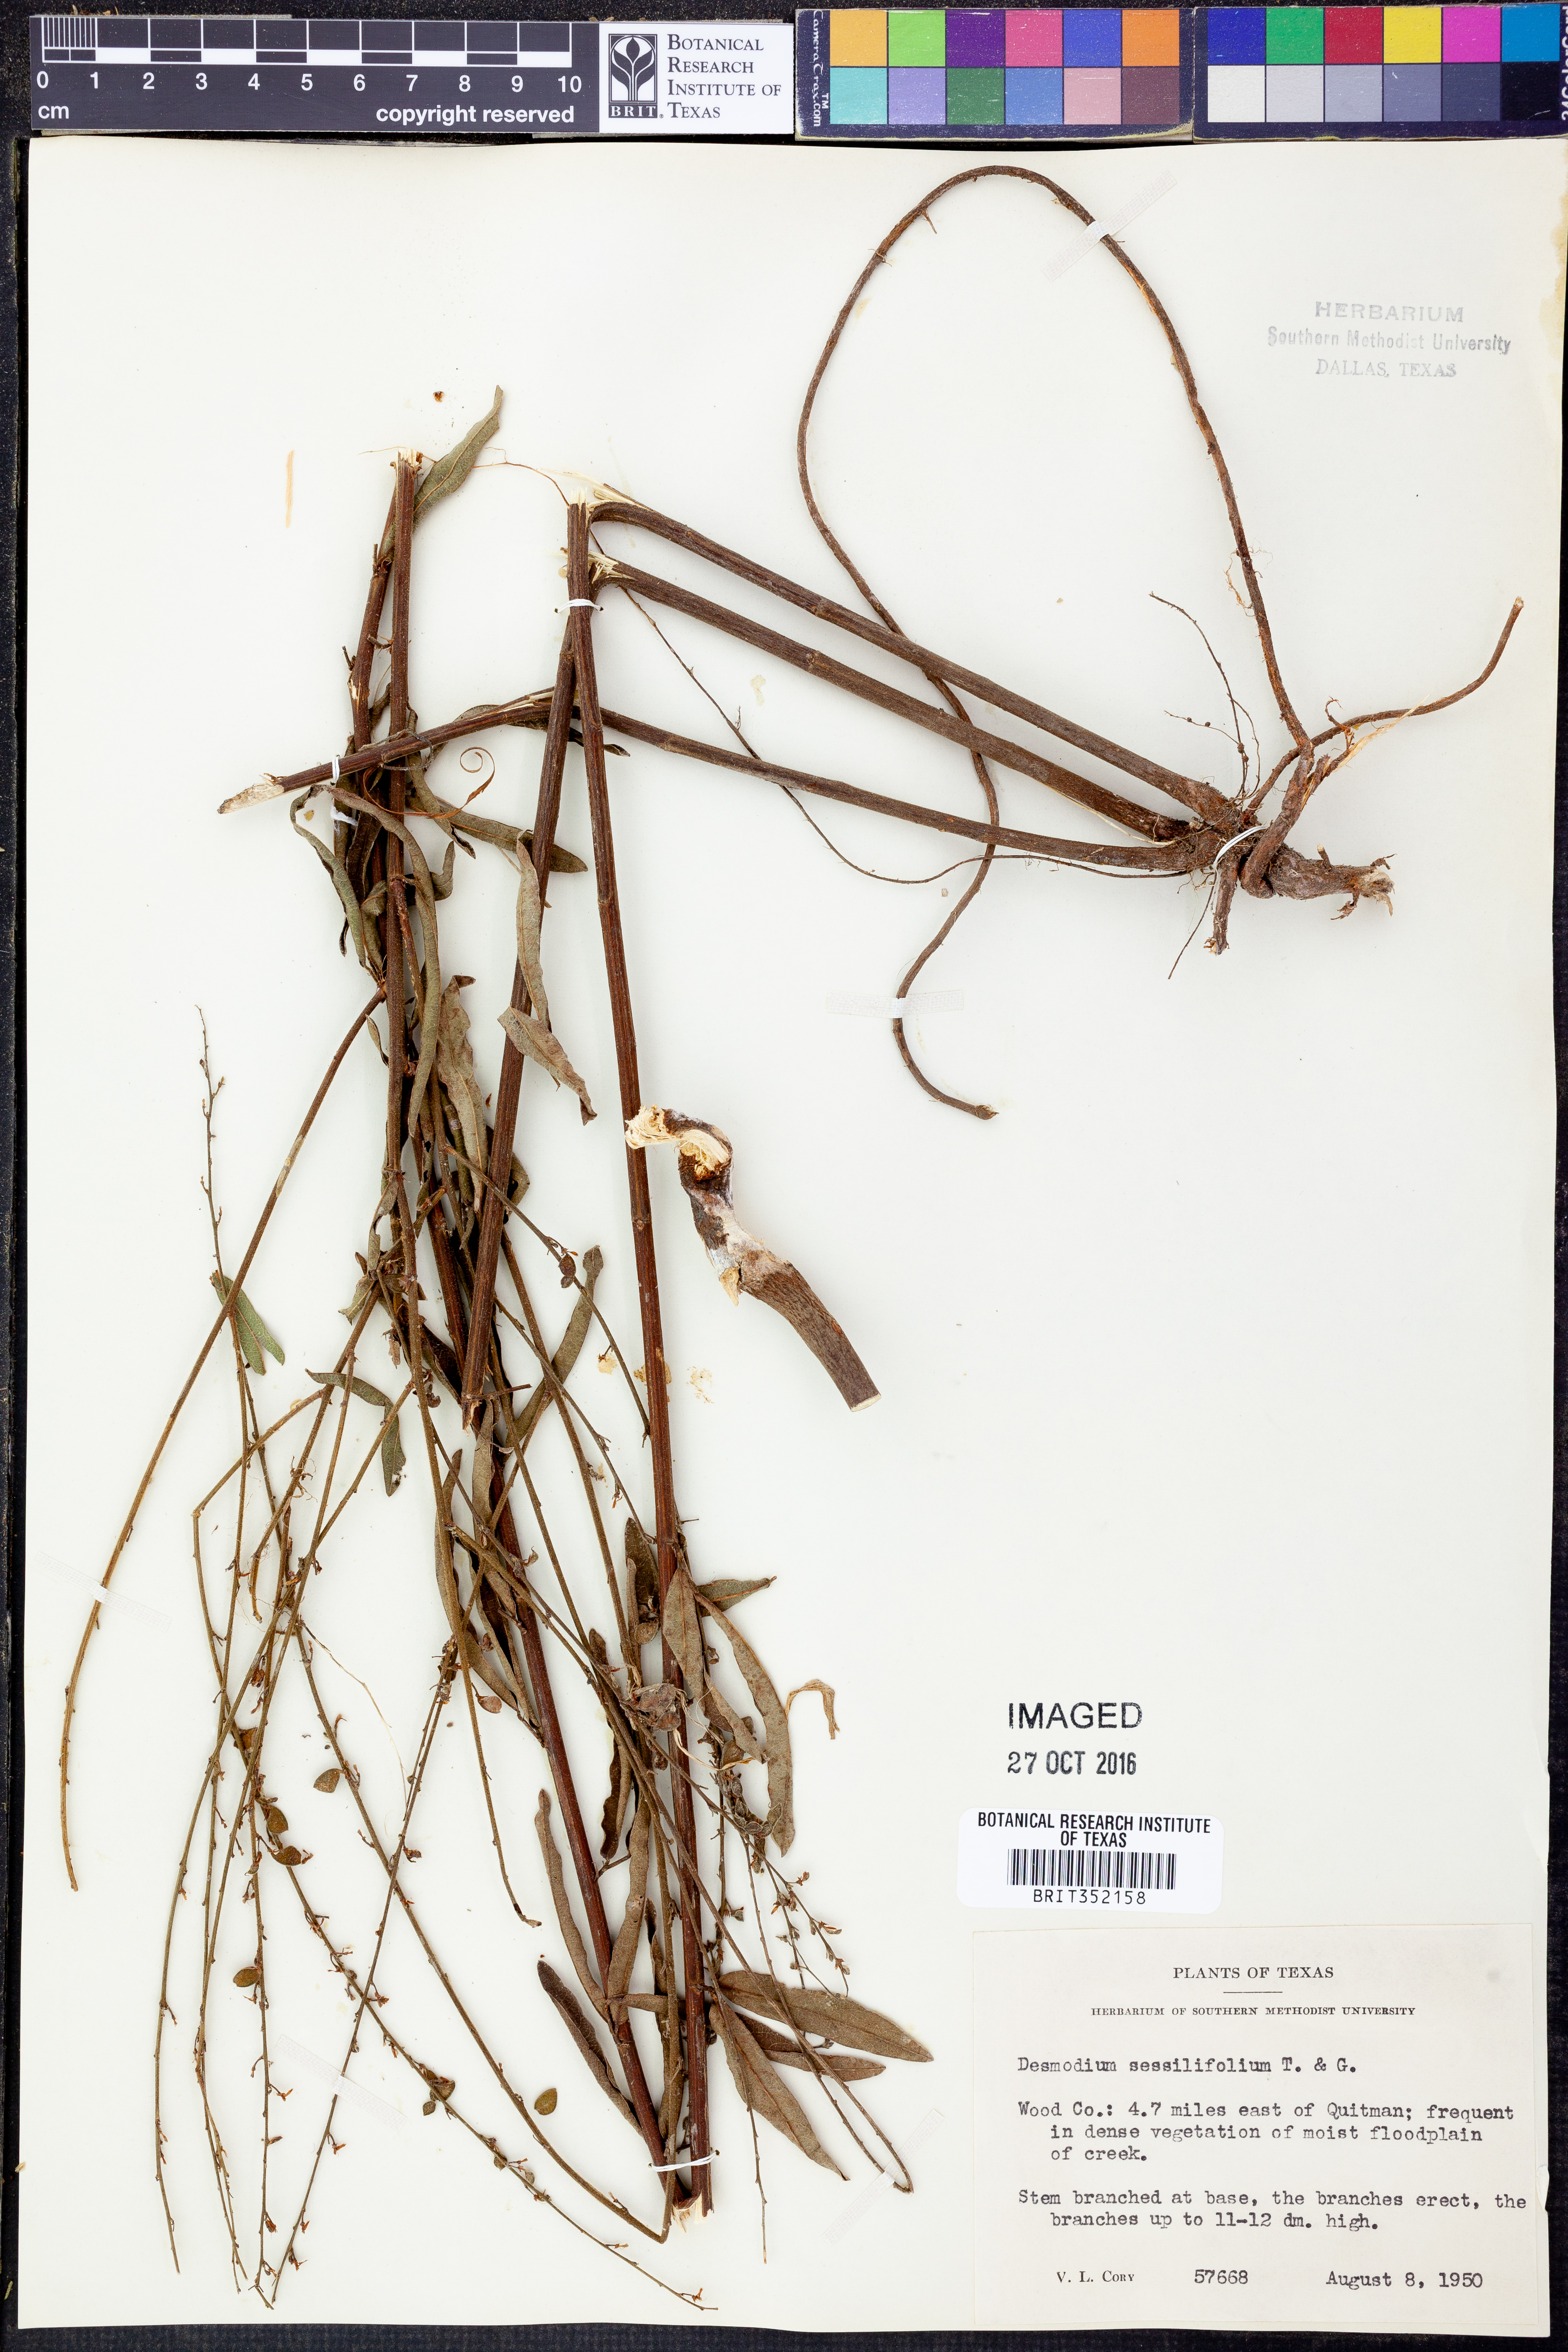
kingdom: Plantae
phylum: Tracheophyta
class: Magnoliopsida
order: Fabales
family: Fabaceae
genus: Desmodium
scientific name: Desmodium sessilifolium
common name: Sessile tick-clover
